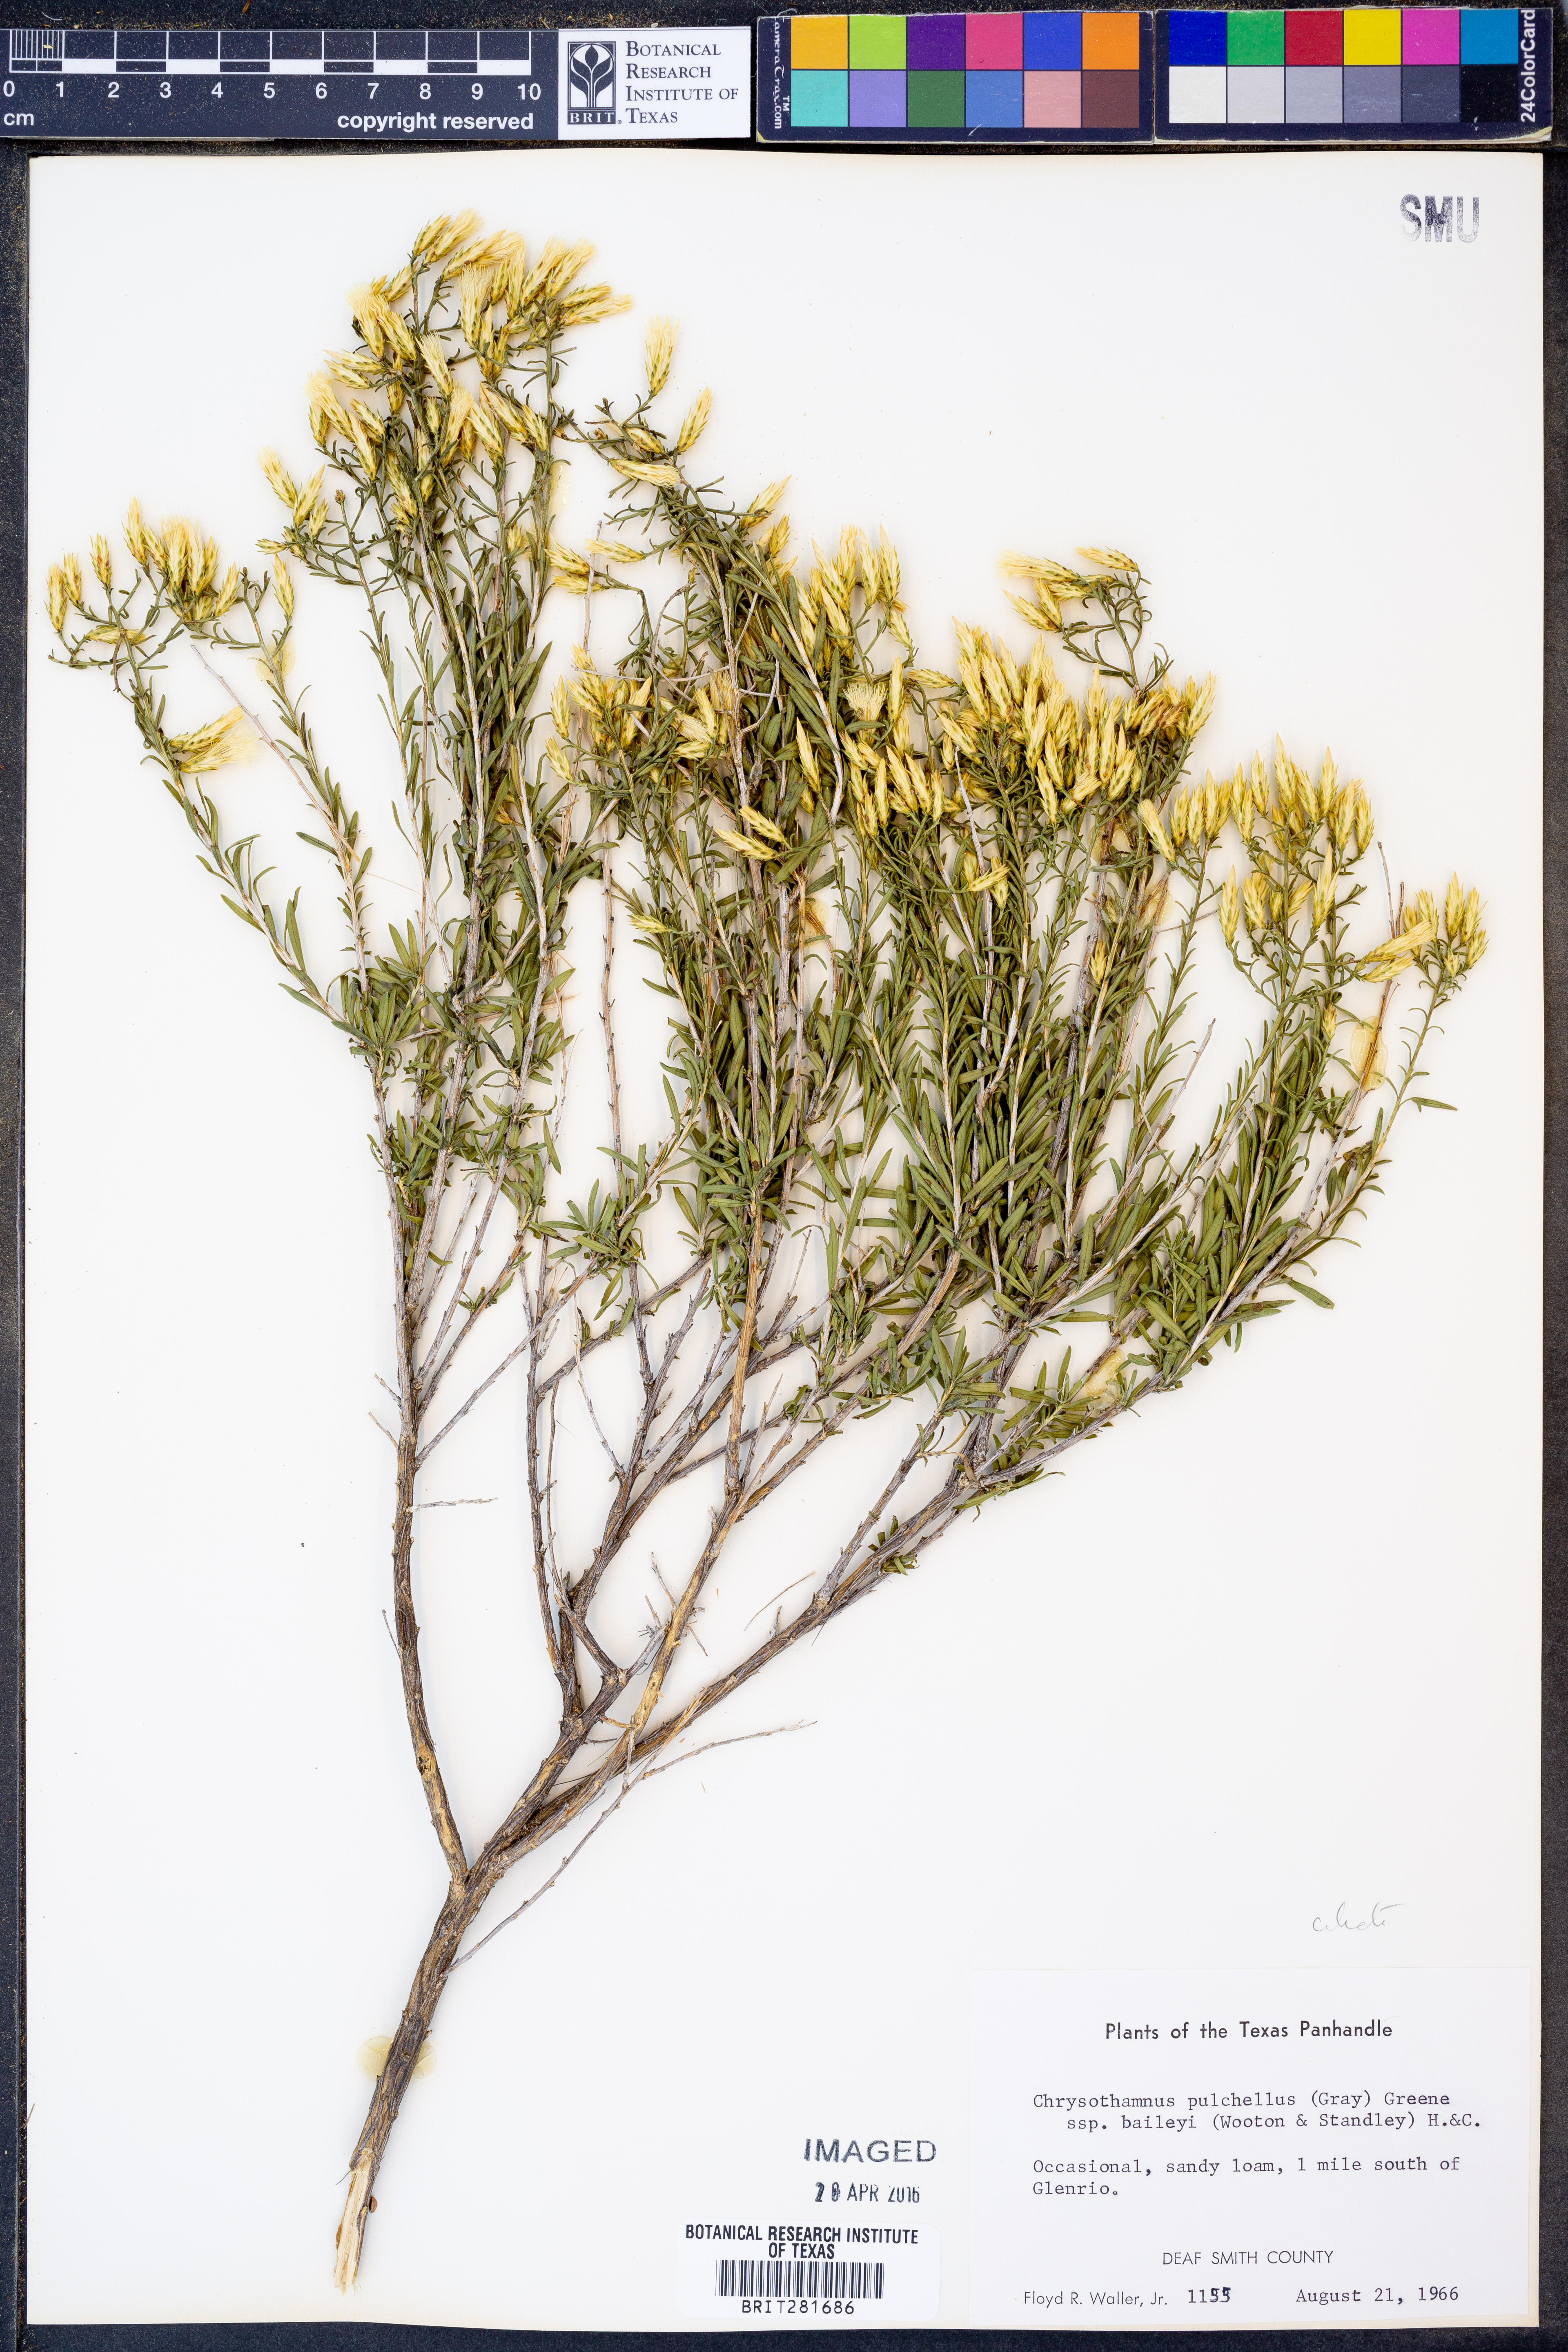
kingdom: Plantae
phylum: Tracheophyta
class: Magnoliopsida
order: Asterales
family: Asteraceae
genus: Lorandersonia
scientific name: Lorandersonia baileyi
